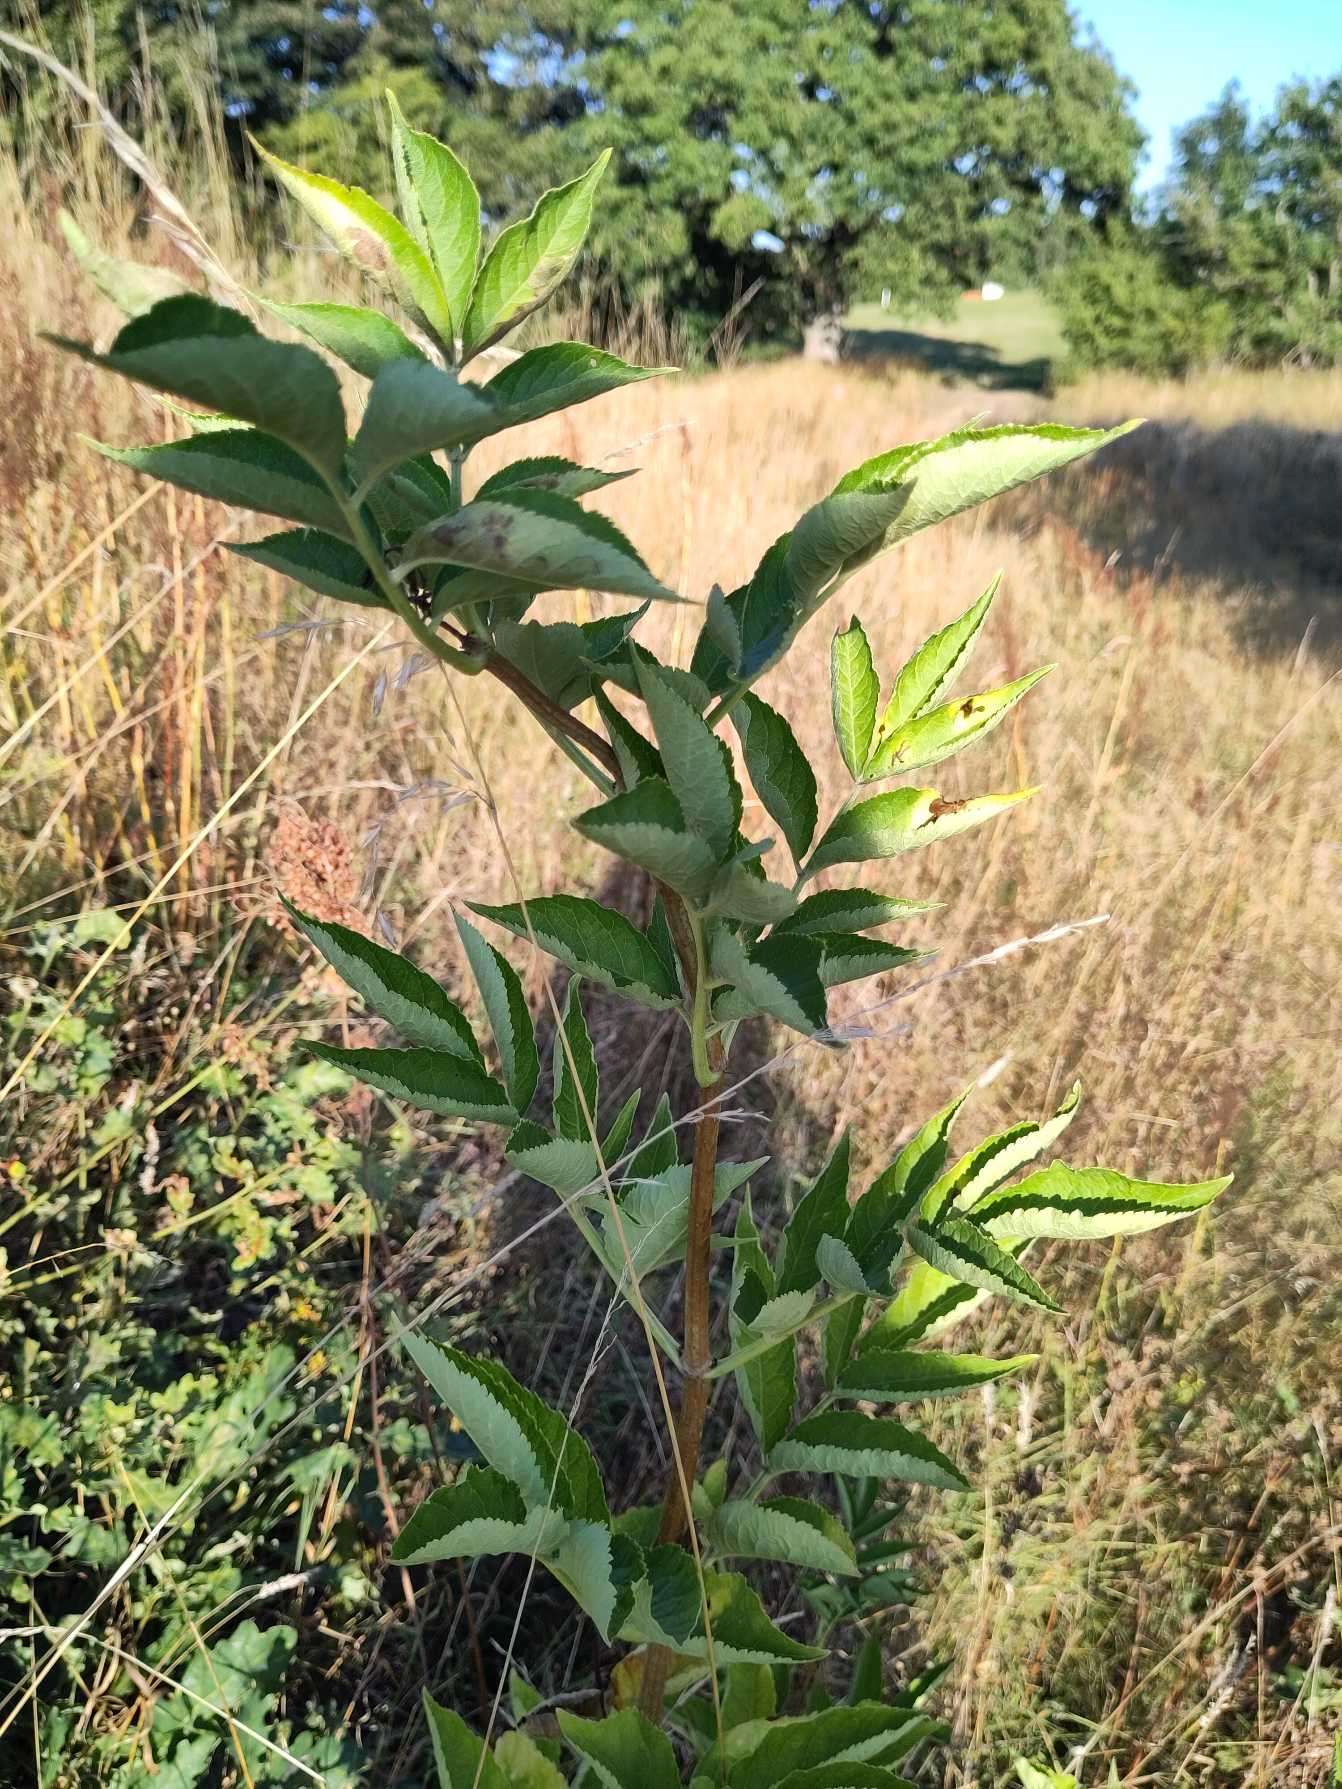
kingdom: Plantae
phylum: Tracheophyta
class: Magnoliopsida
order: Dipsacales
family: Viburnaceae
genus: Sambucus
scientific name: Sambucus
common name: Hyldeslægten
